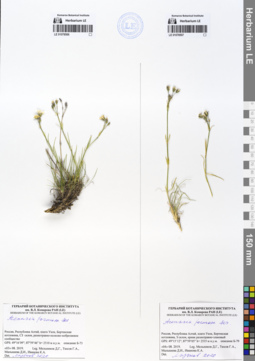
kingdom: Plantae
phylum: Tracheophyta
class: Magnoliopsida
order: Caryophyllales
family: Caryophyllaceae
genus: Eremogone
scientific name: Eremogone formosa
